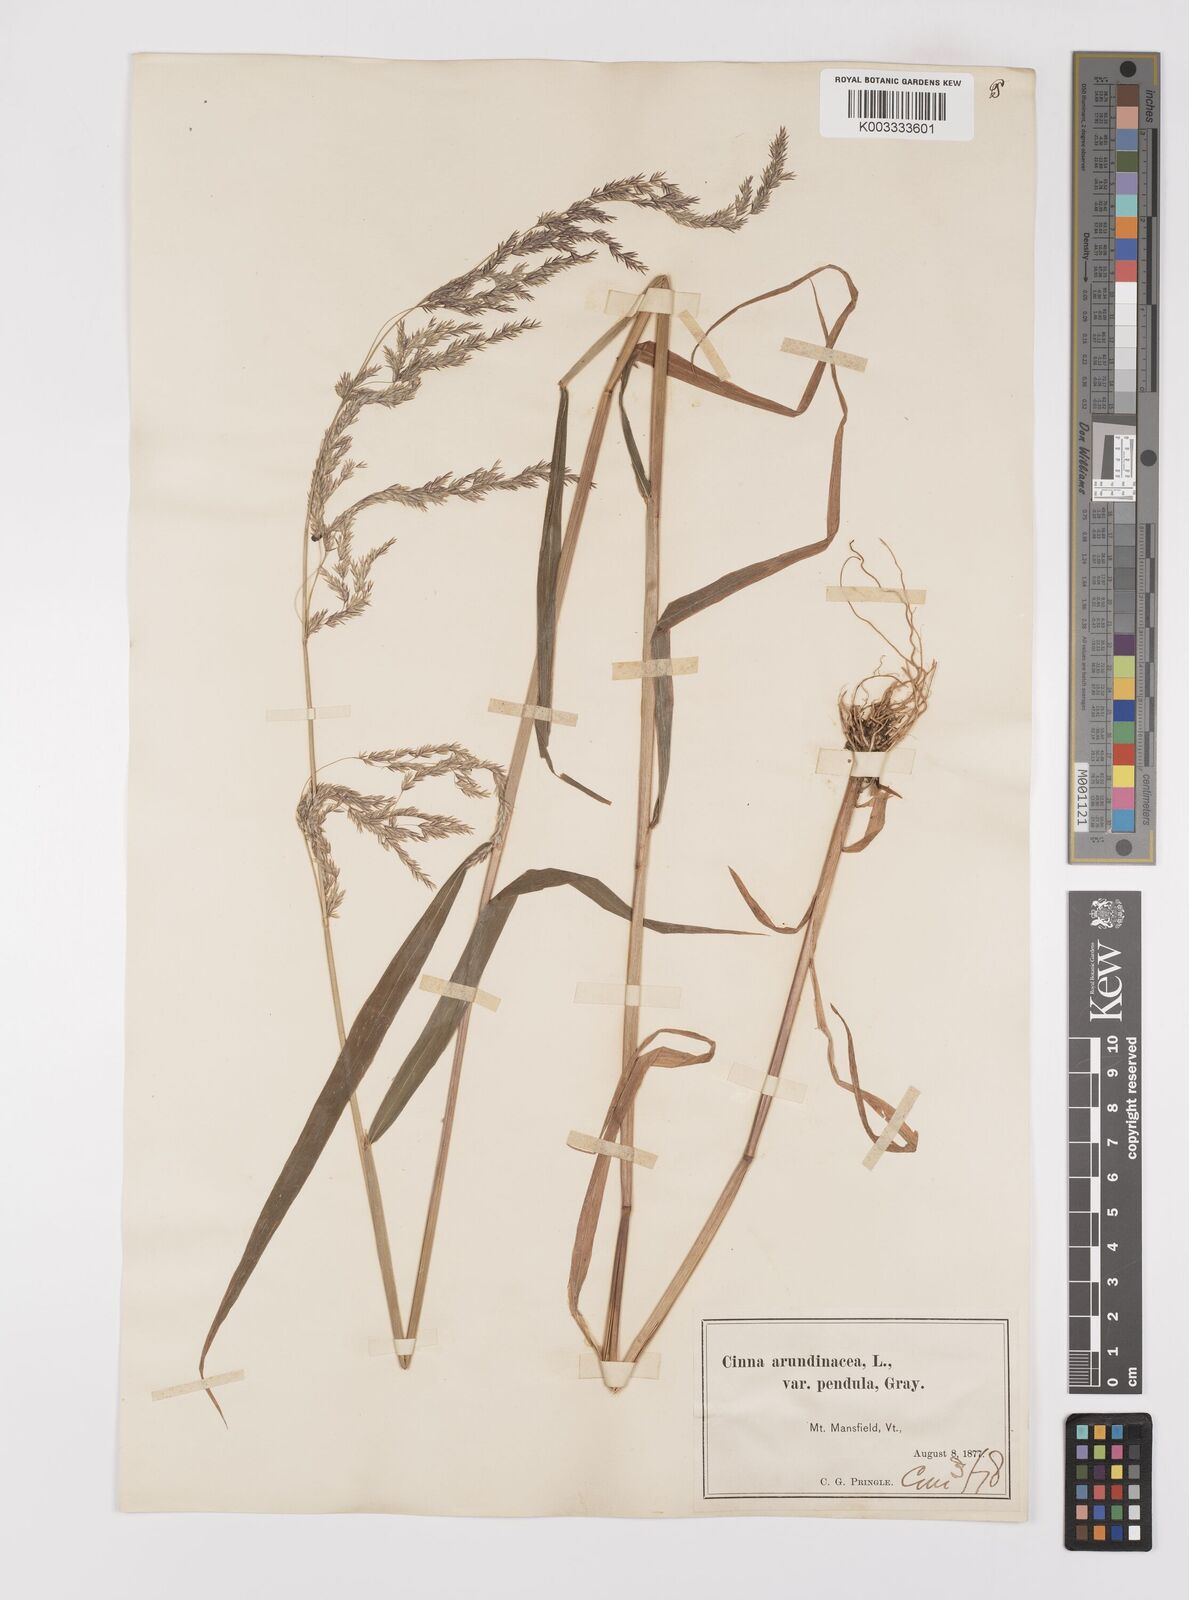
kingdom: Plantae
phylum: Tracheophyta
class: Liliopsida
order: Poales
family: Poaceae
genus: Cinna
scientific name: Cinna latifolia
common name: Drooping woodreed
